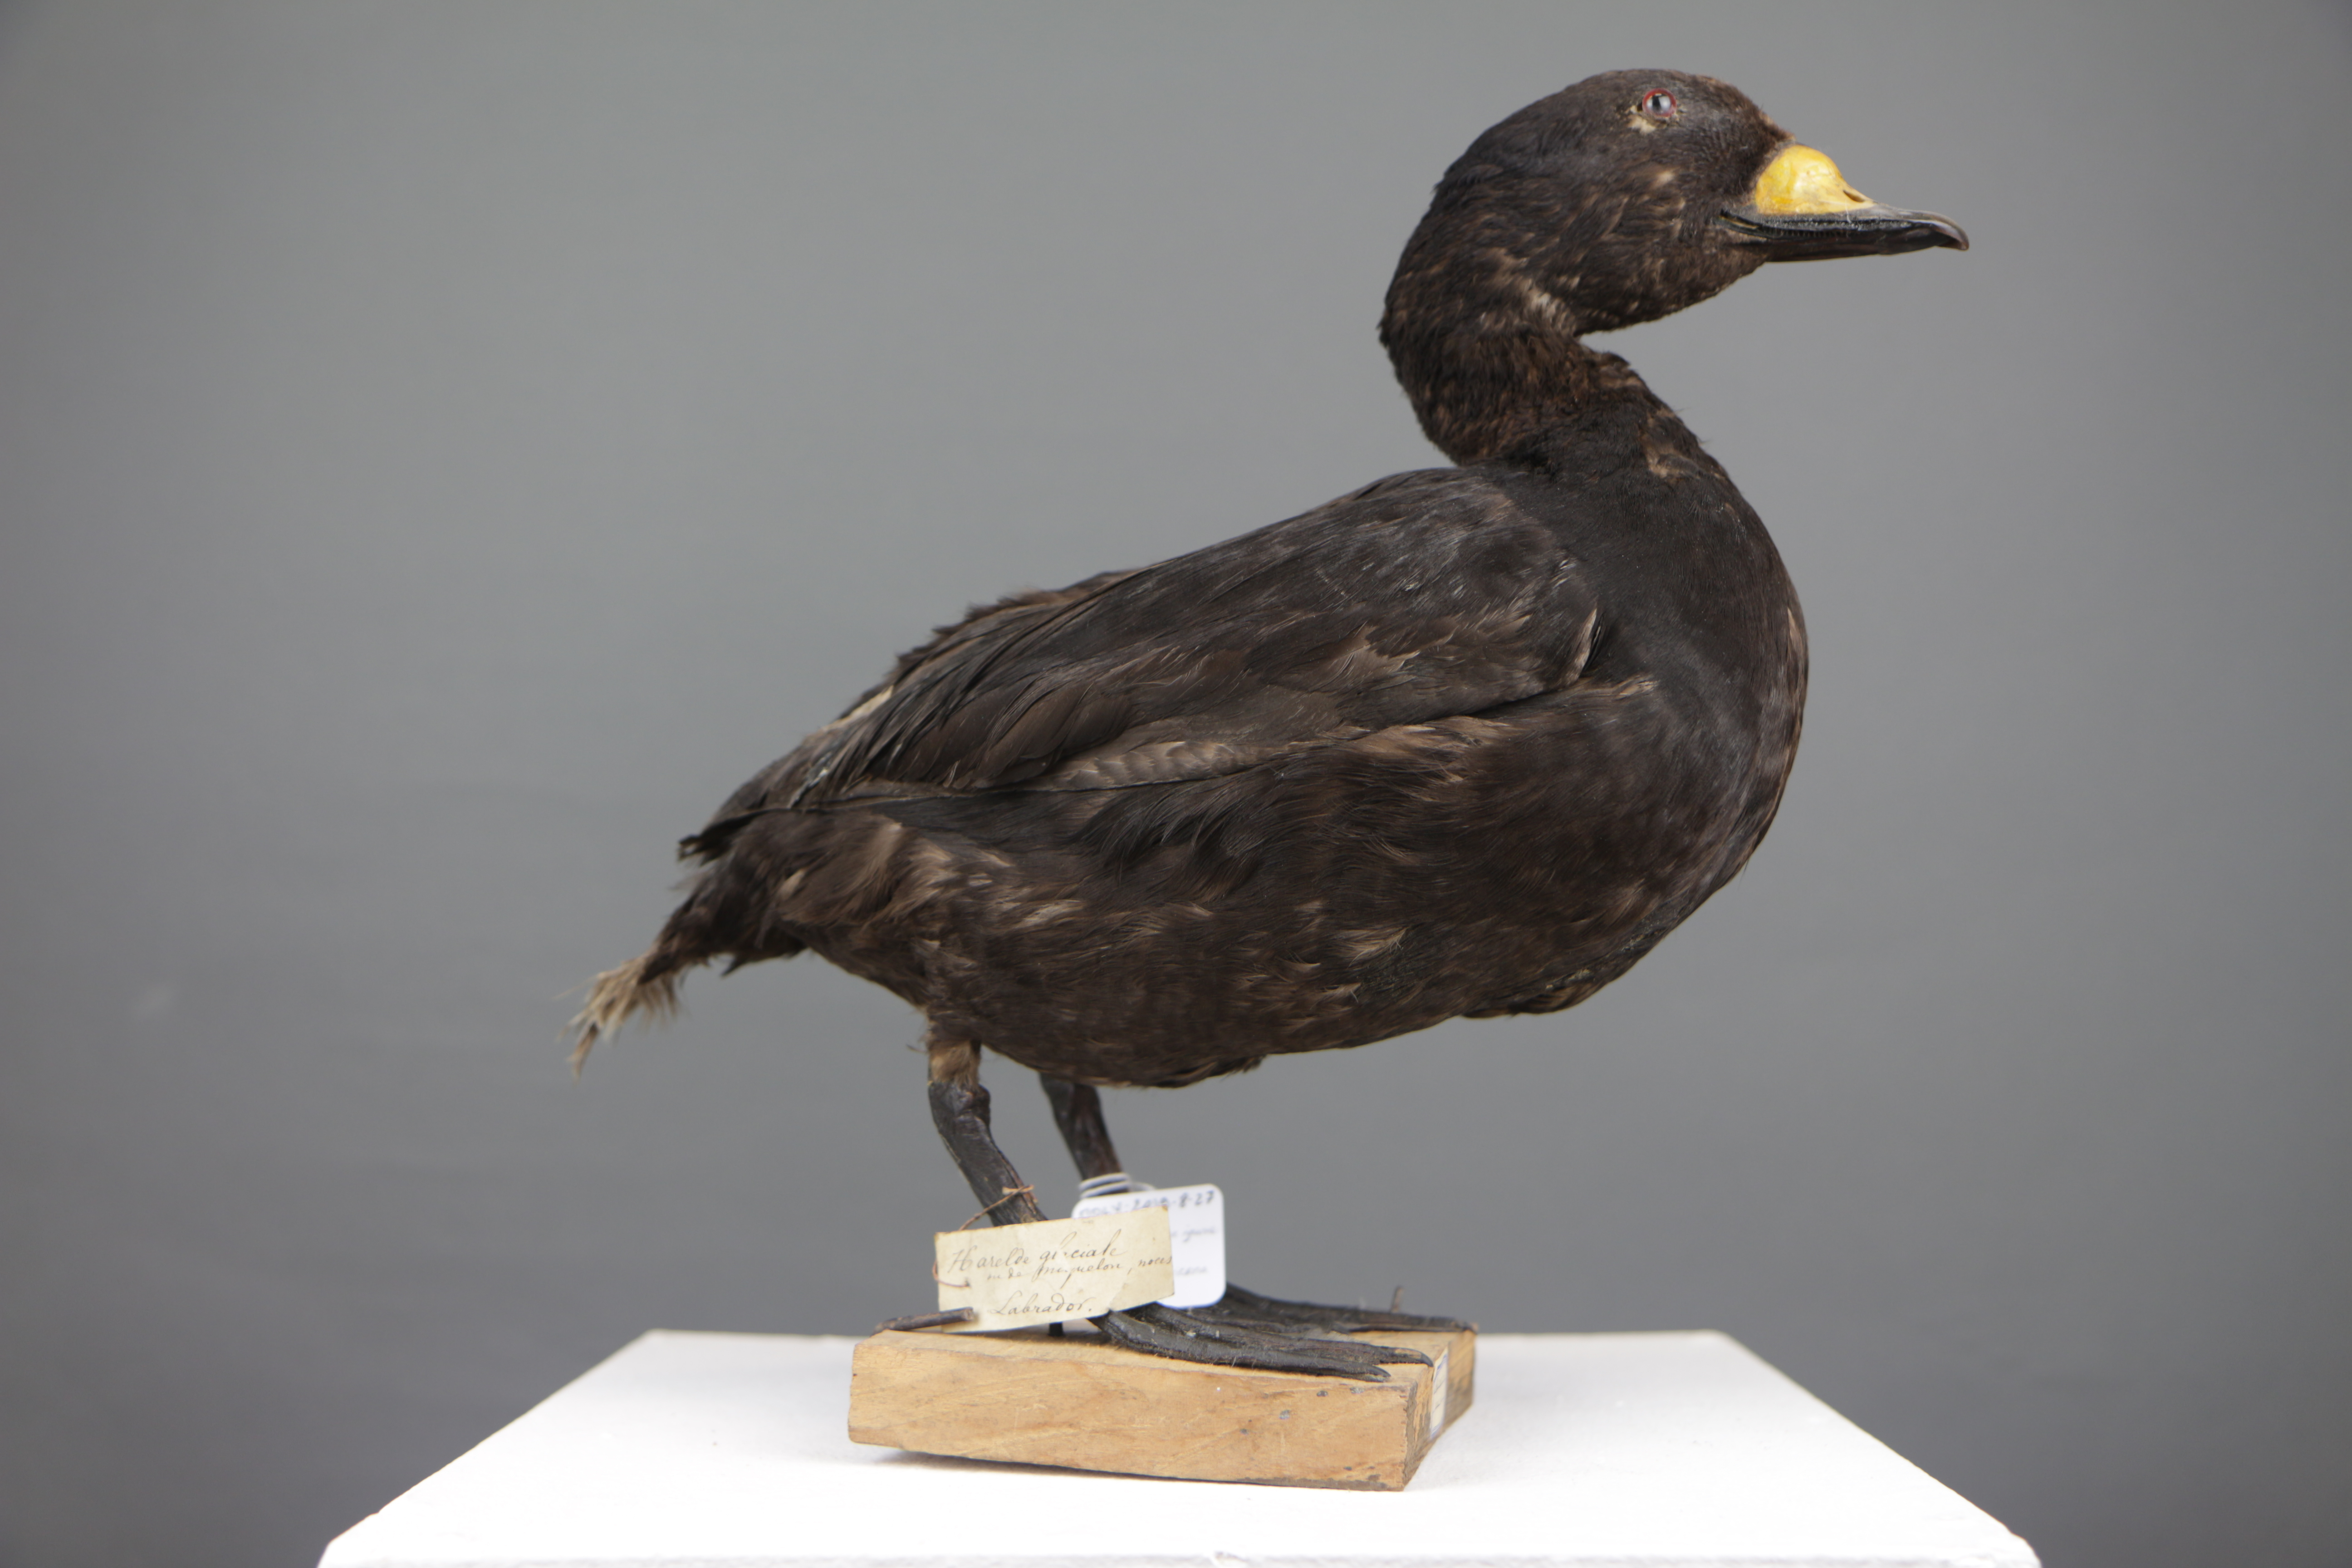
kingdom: Animalia
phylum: Chordata
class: Aves
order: Anseriformes
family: Anatidae
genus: Melanitta
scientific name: Melanitta americana
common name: Black scoter
